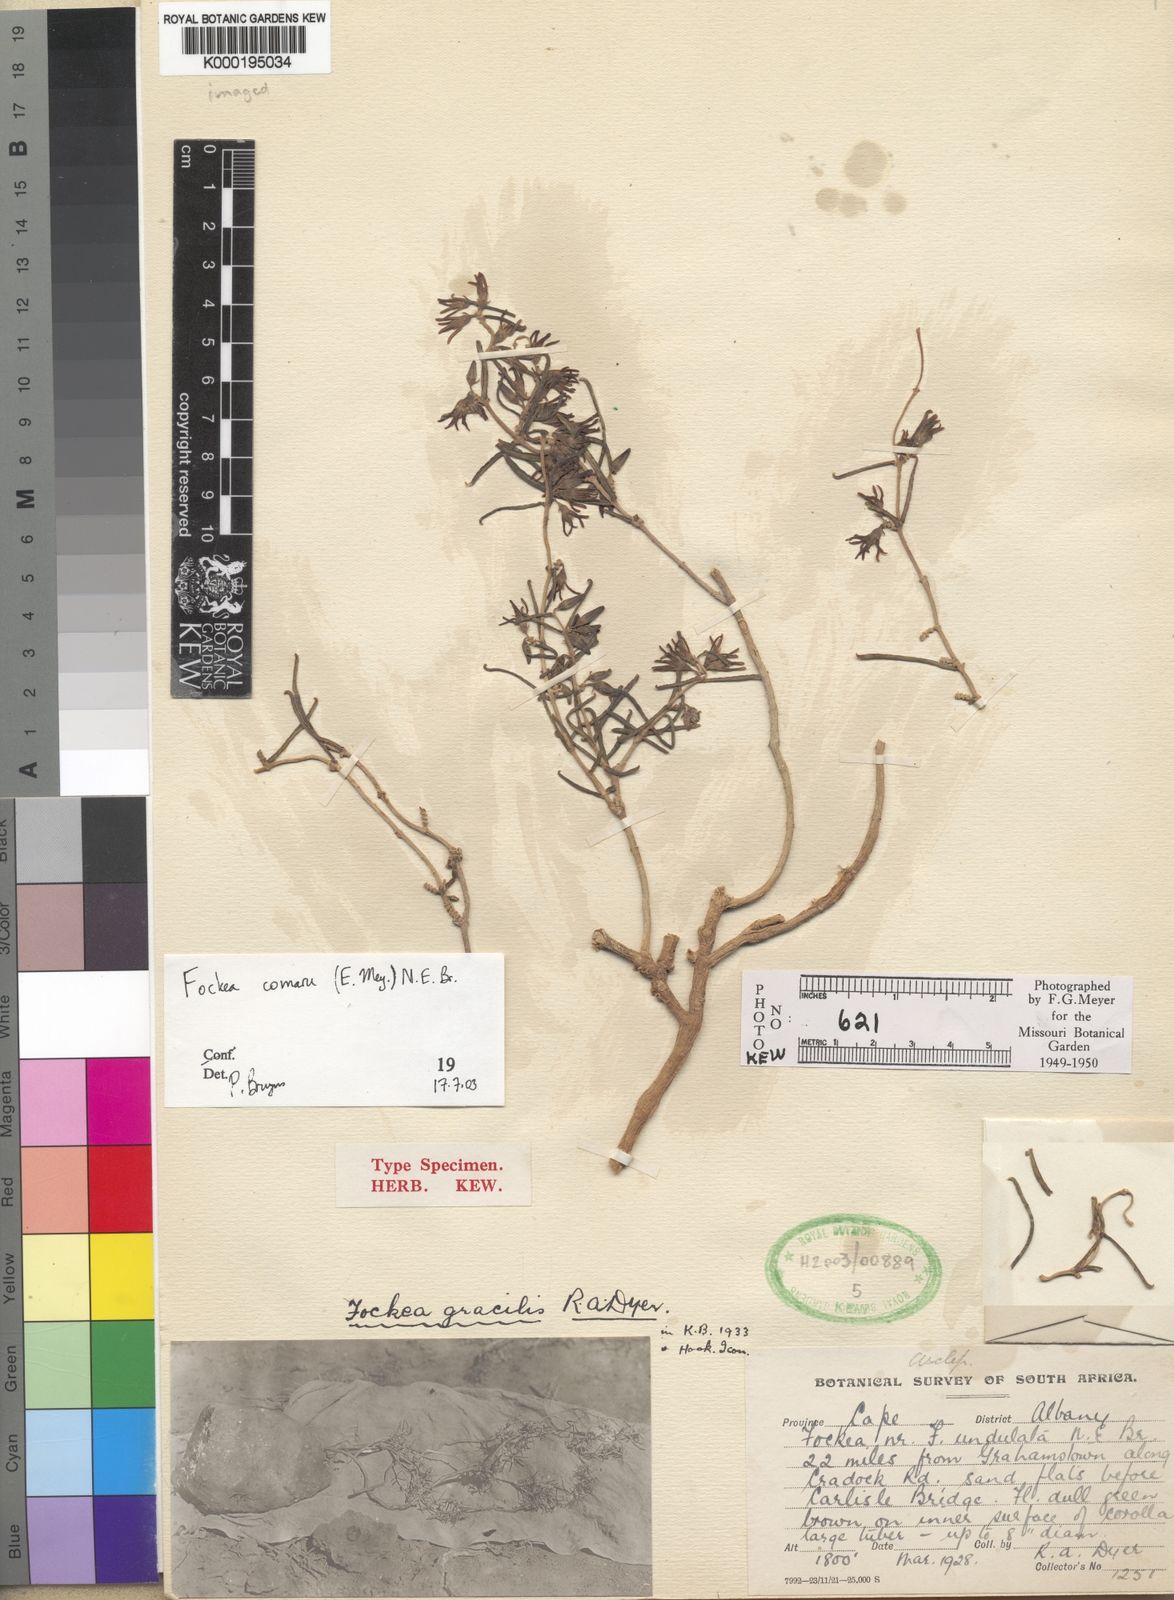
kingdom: Plantae
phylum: Tracheophyta
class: Magnoliopsida
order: Gentianales
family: Apocynaceae
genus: Fockea
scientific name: Fockea comaru
